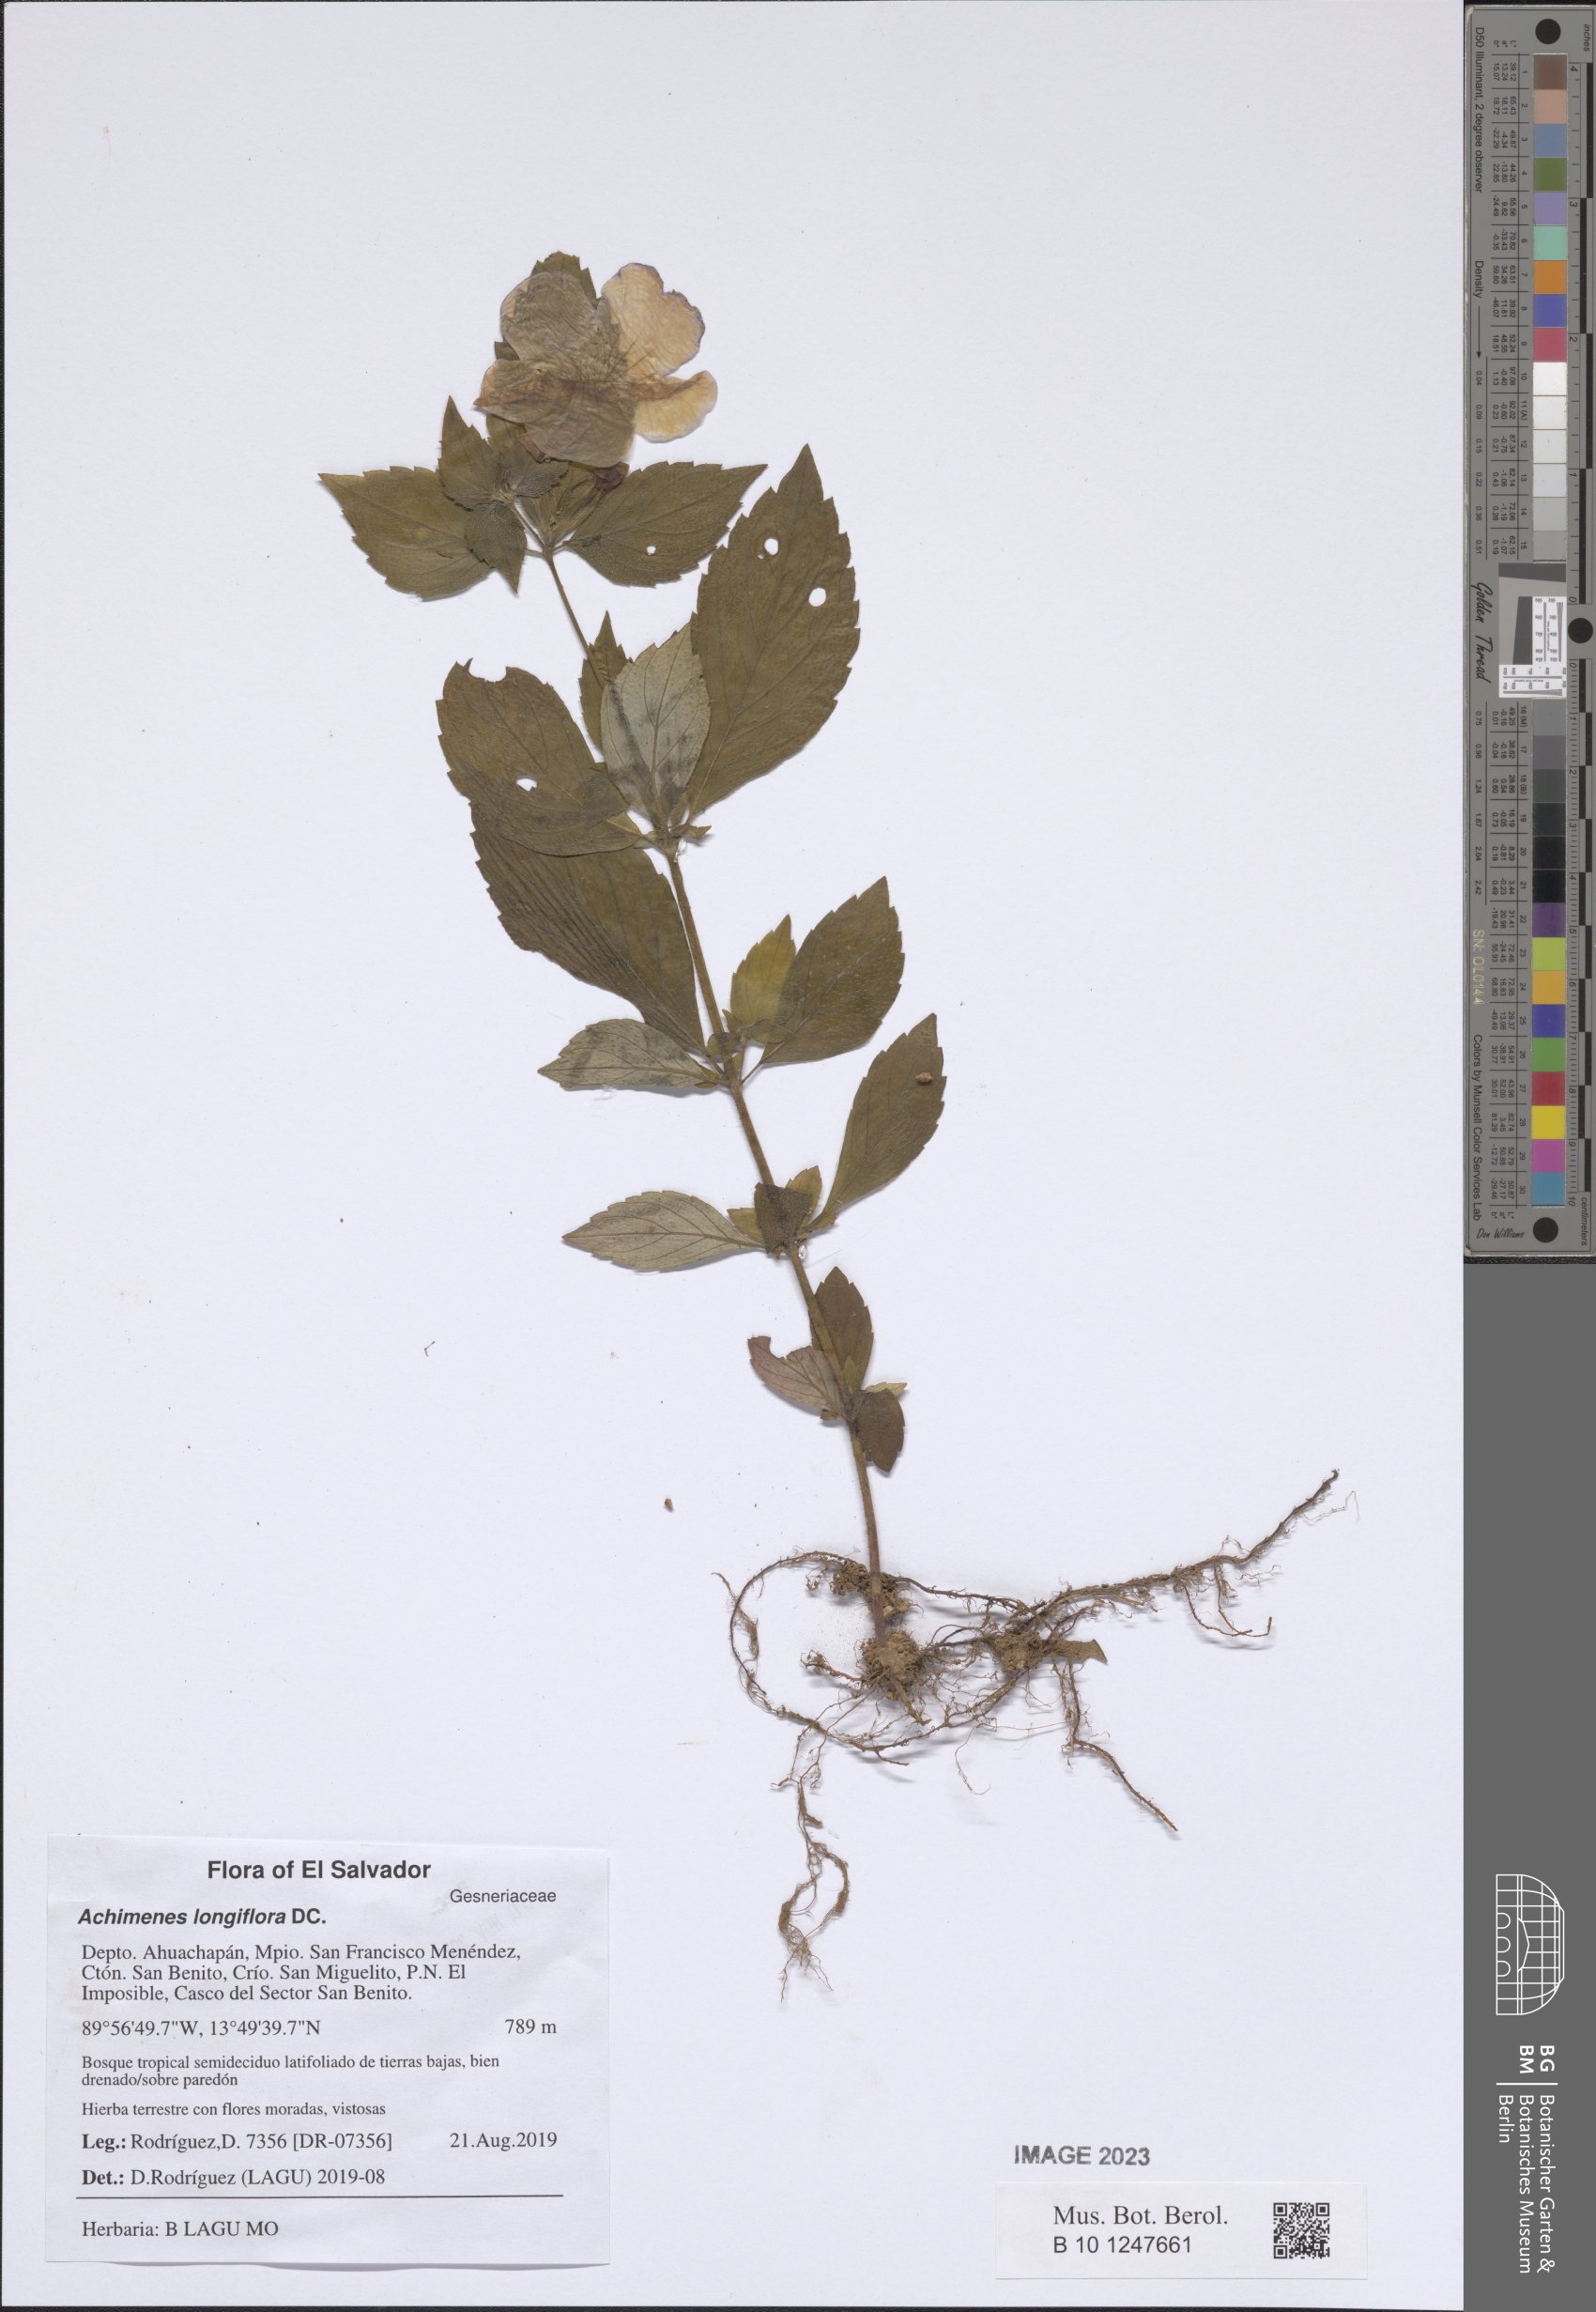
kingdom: Plantae
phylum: Tracheophyta
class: Magnoliopsida
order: Lamiales
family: Gesneriaceae
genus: Achimenes
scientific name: Achimenes longiflora
